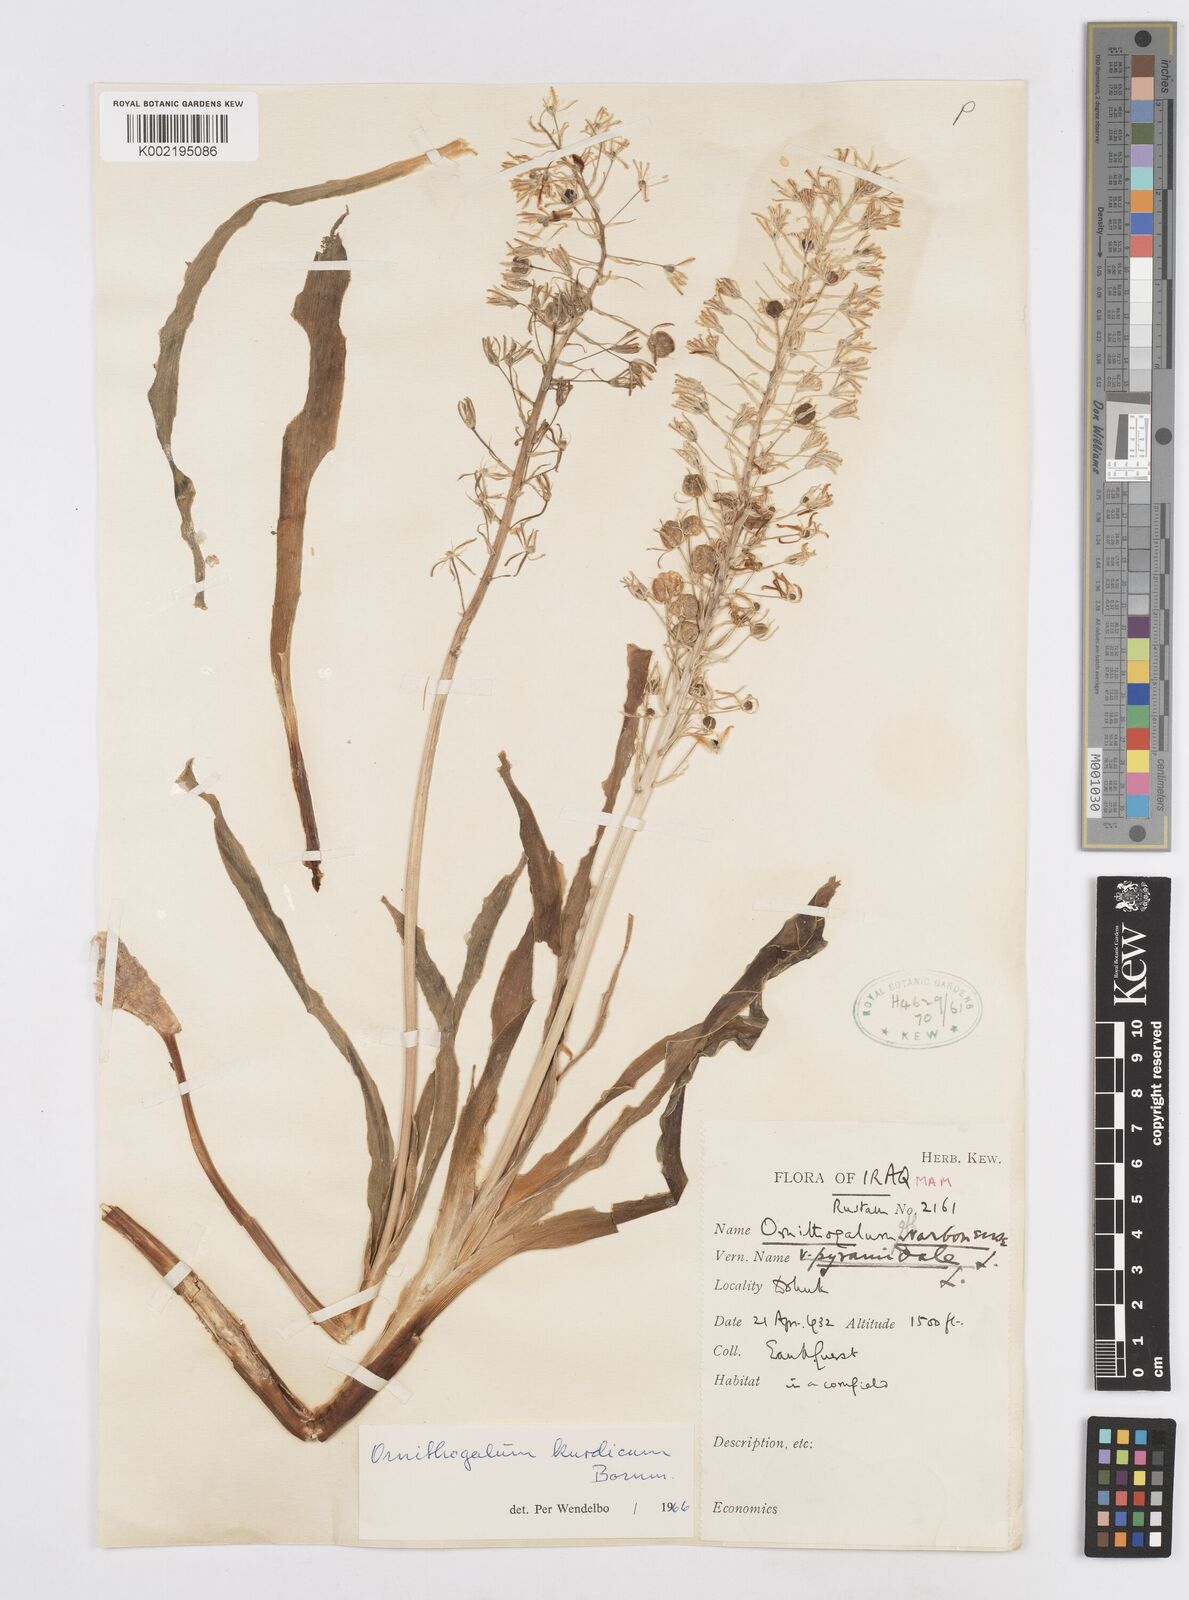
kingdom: Plantae
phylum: Tracheophyta
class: Liliopsida
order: Asparagales
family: Asparagaceae
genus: Ornithogalum
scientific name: Ornithogalum kurdicum
